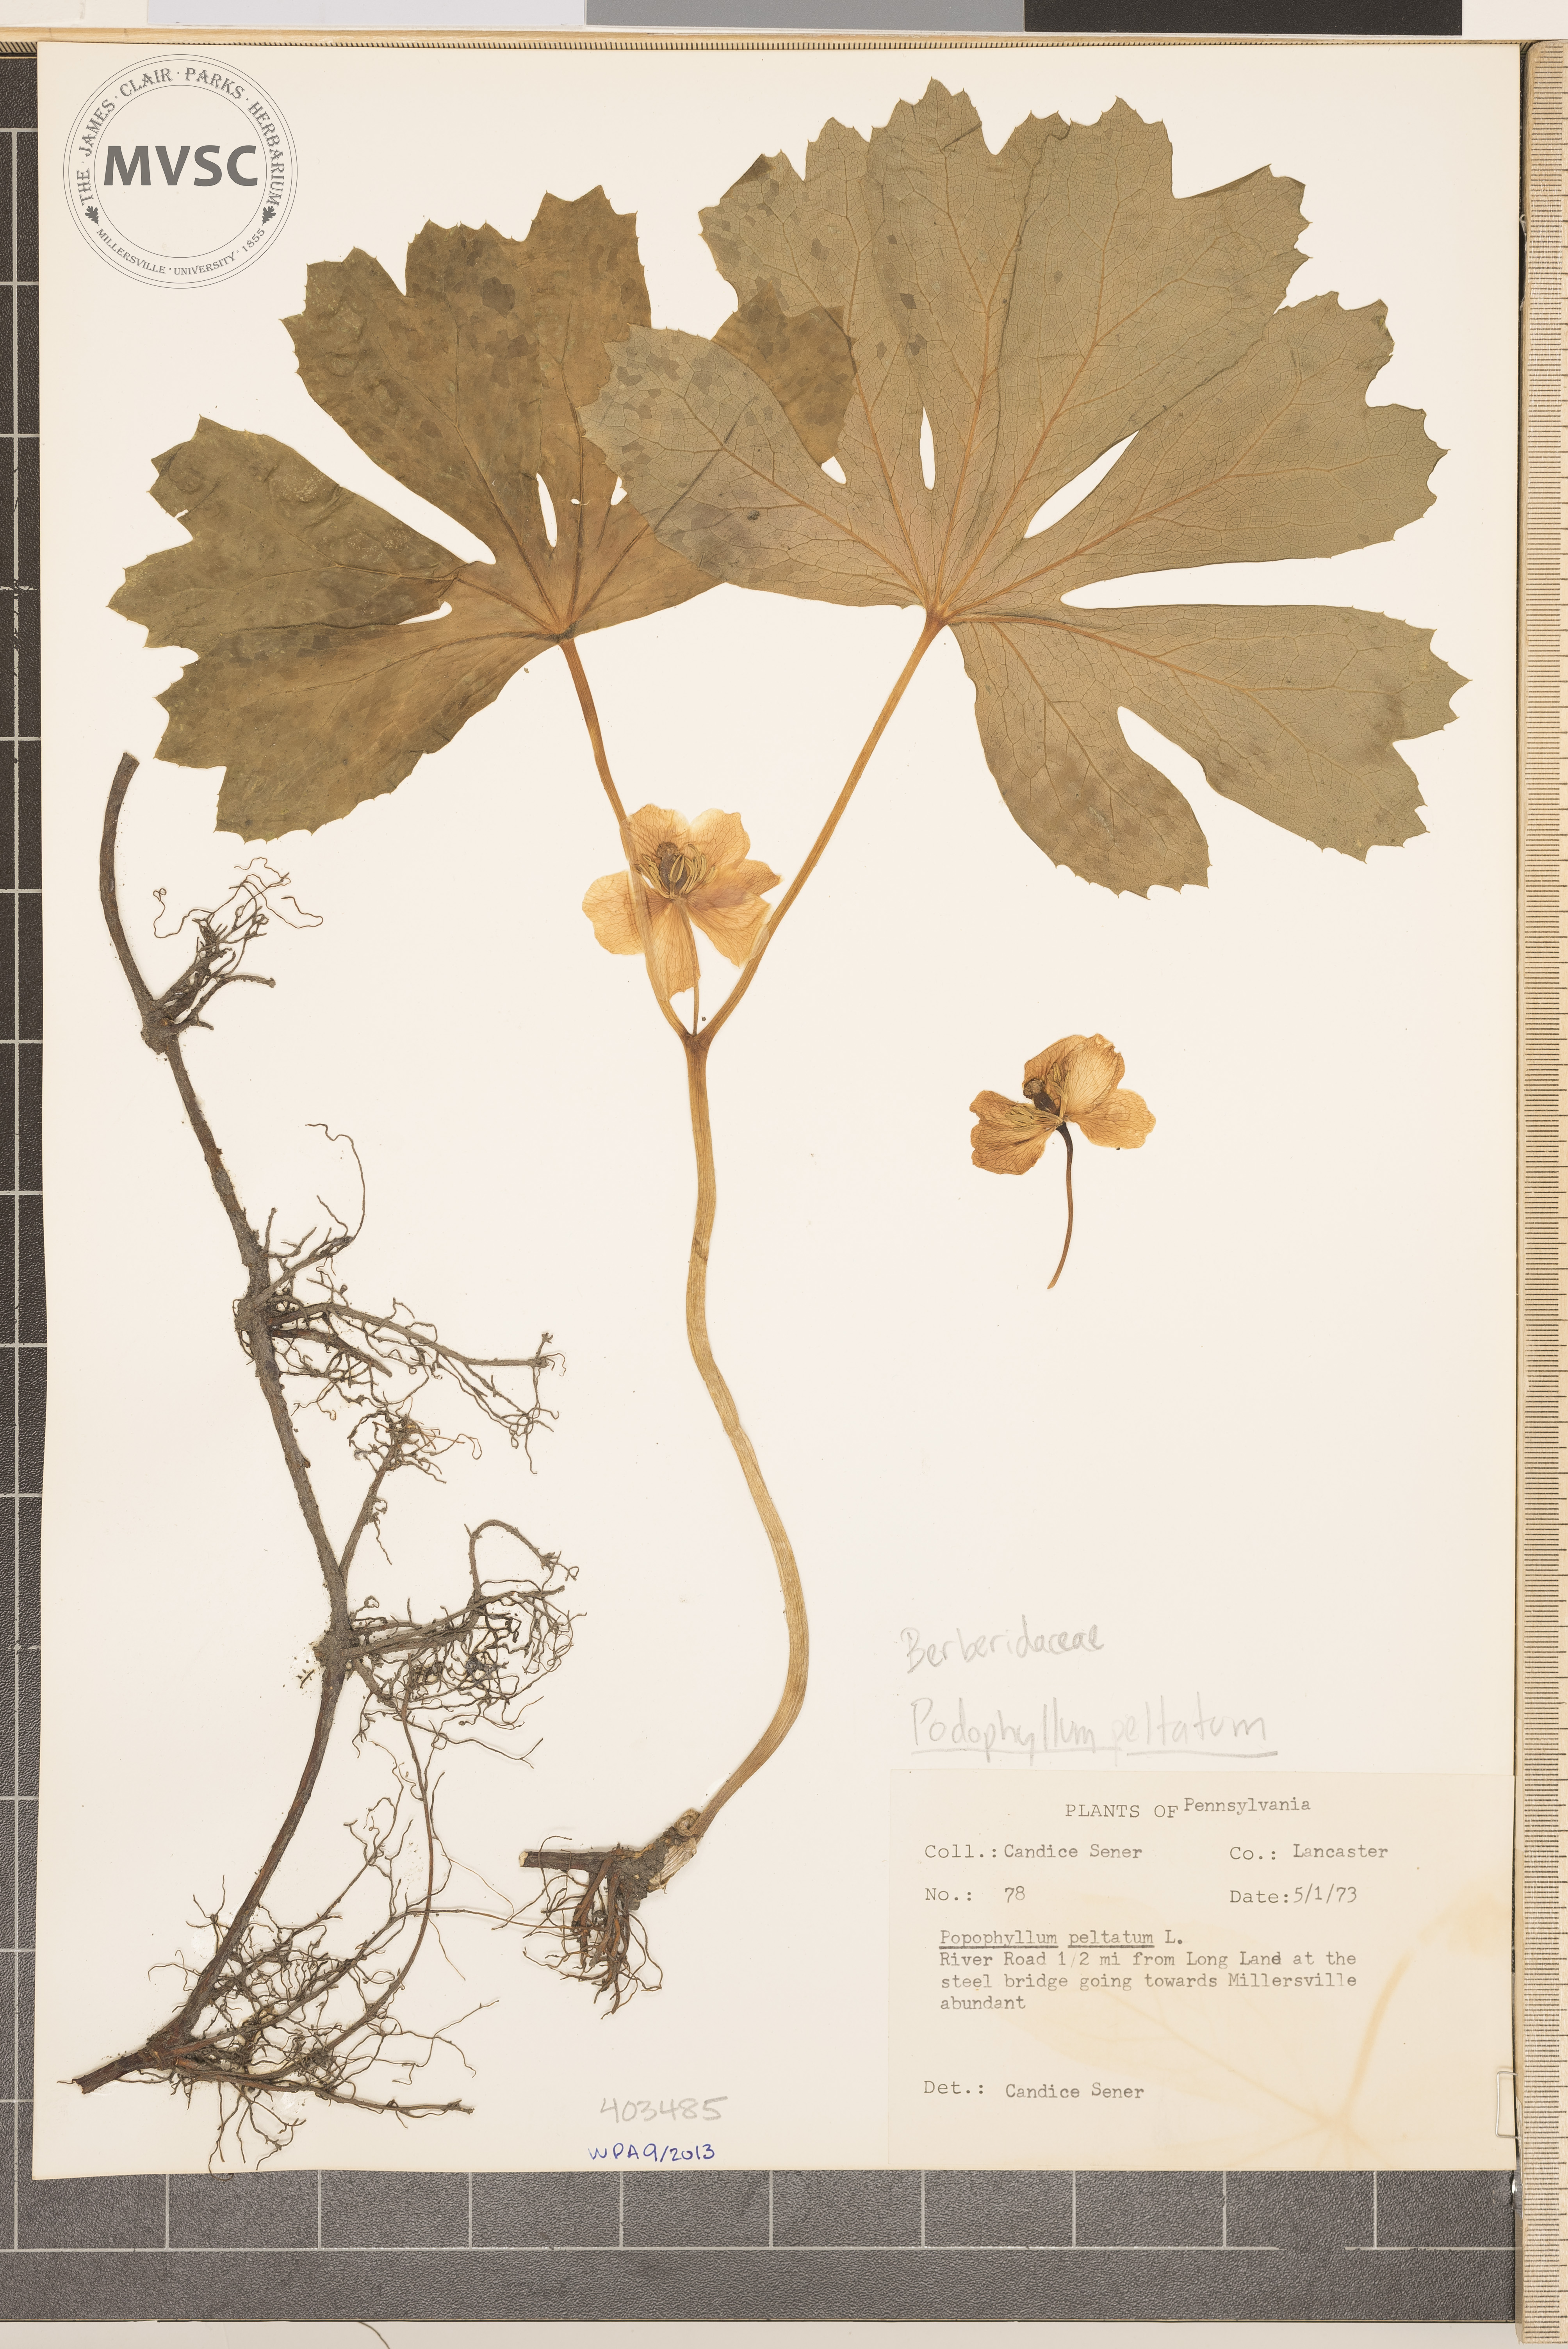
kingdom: Plantae
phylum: Tracheophyta
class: Magnoliopsida
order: Ranunculales
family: Berberidaceae
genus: Podophyllum
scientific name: Podophyllum peltatum
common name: May-Apple
